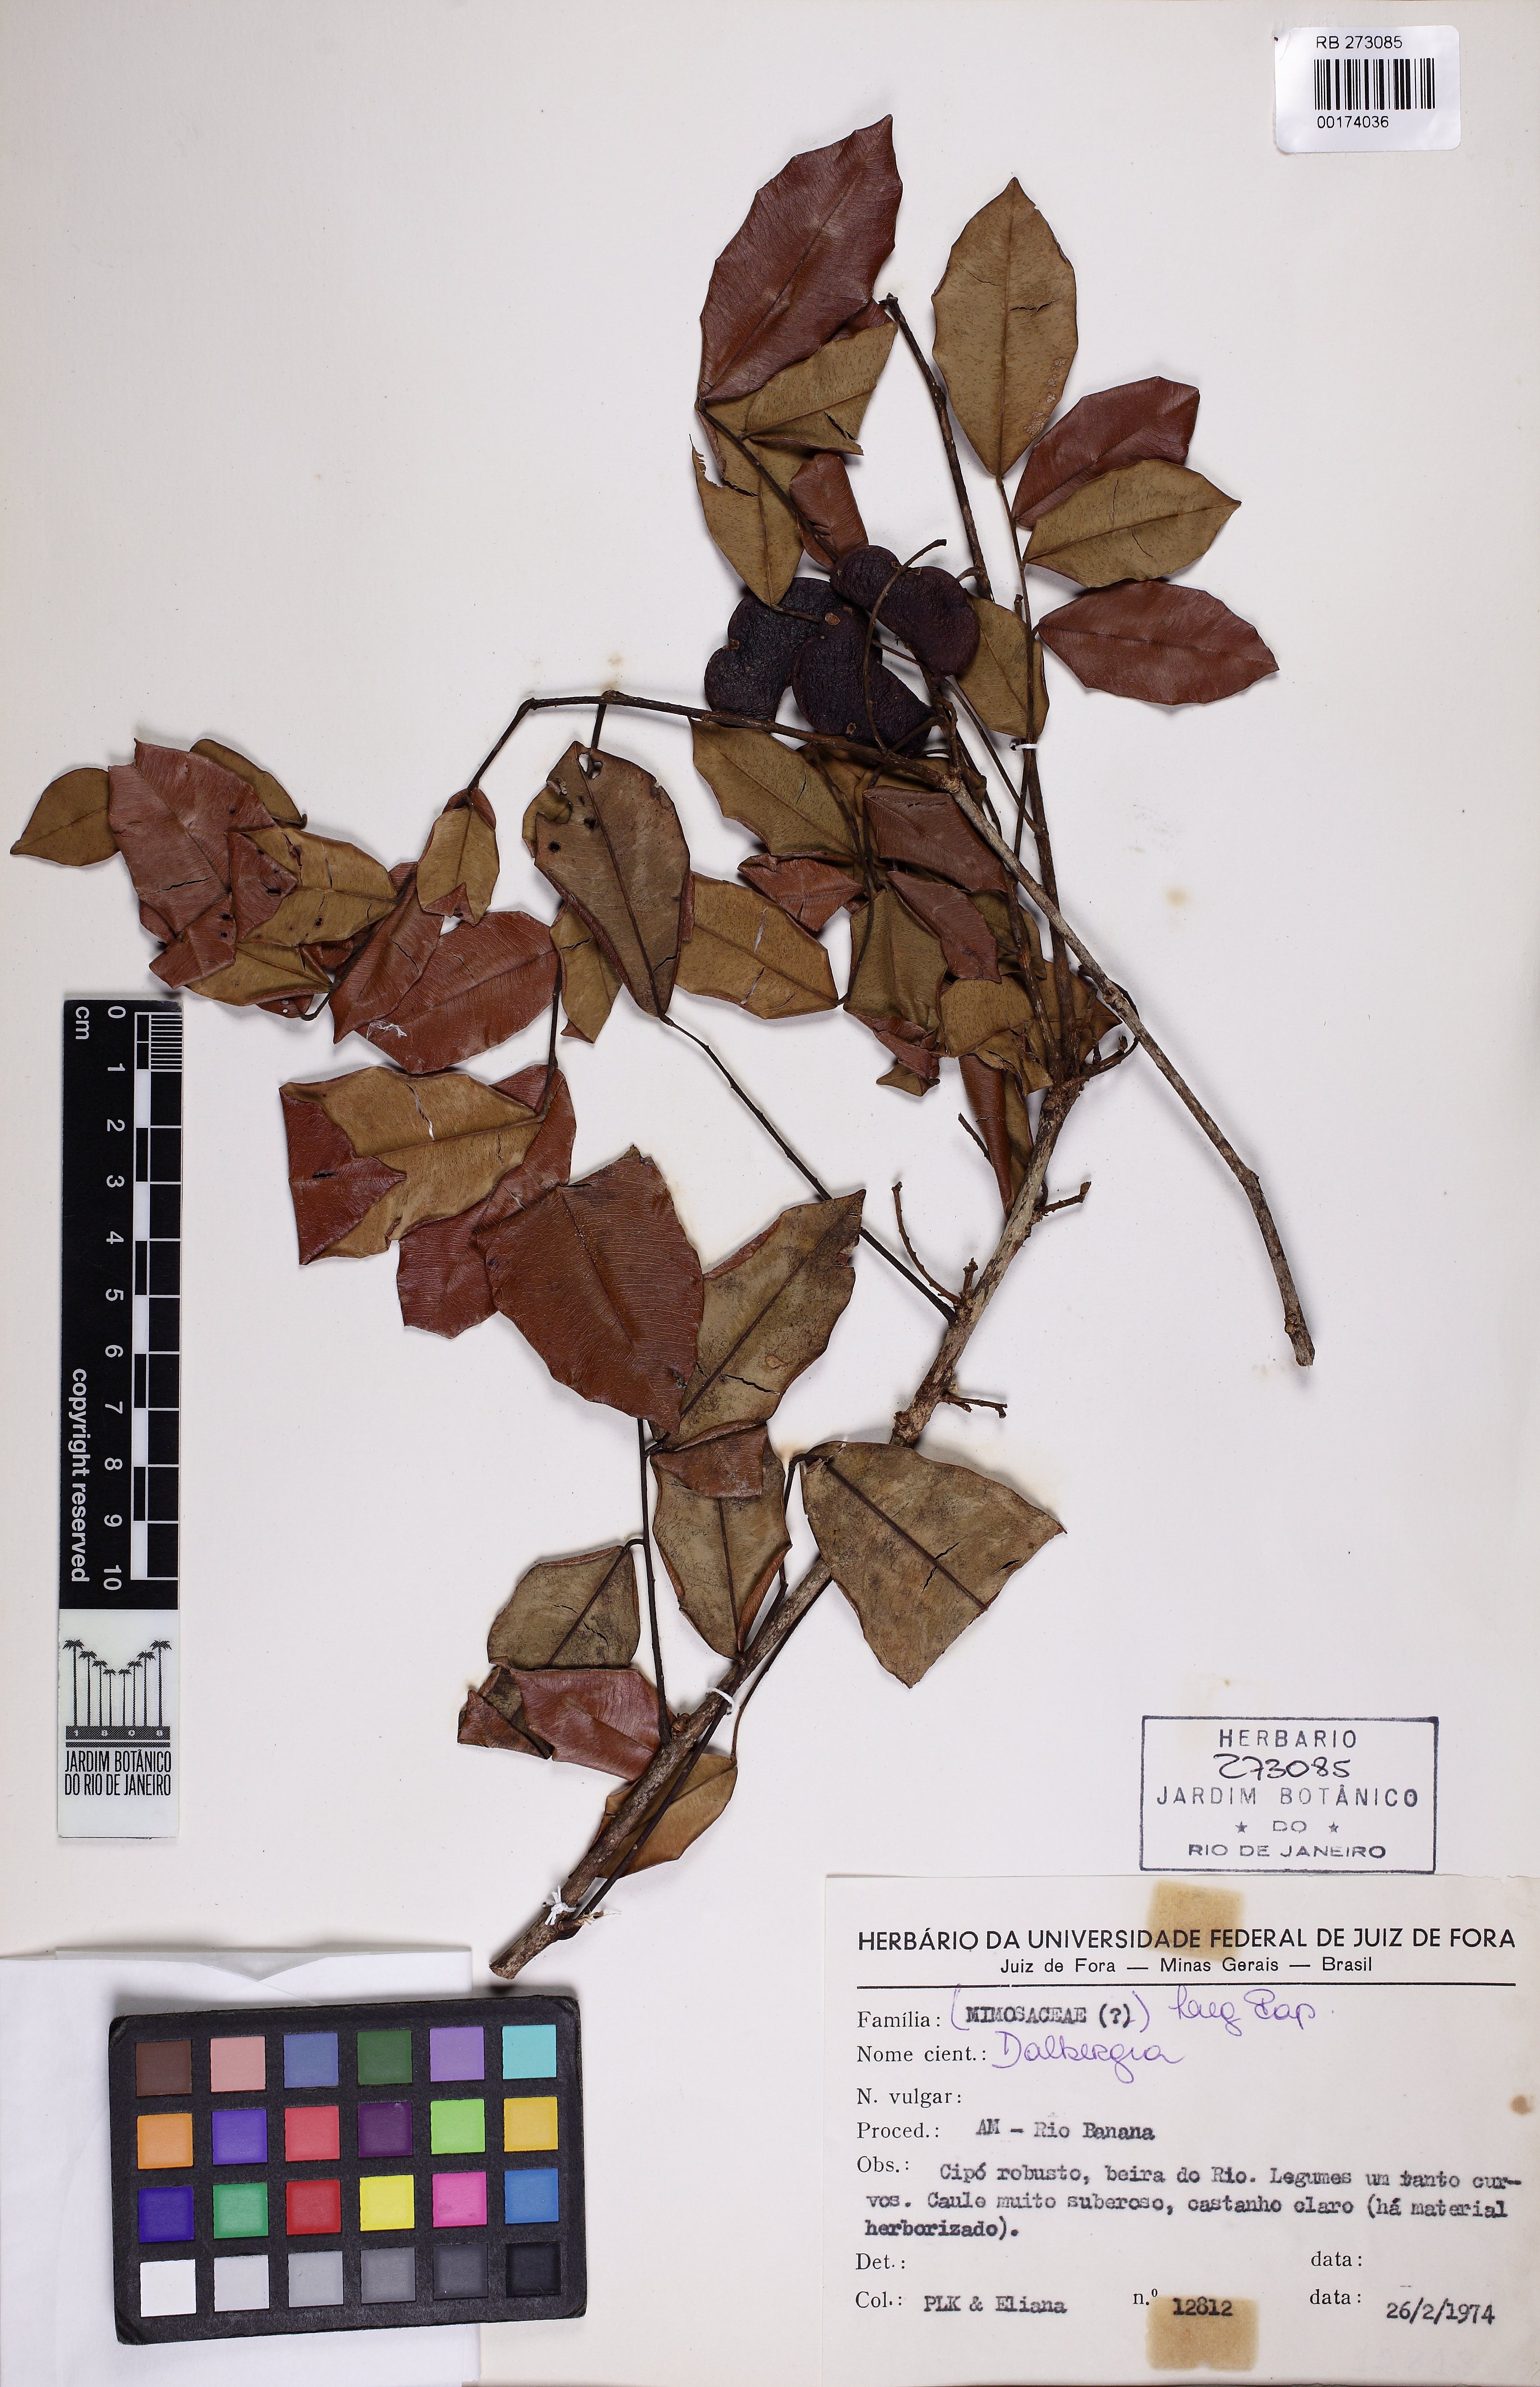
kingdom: Plantae
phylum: Tracheophyta
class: Magnoliopsida
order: Fabales
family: Fabaceae
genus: Machaerium
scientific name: Machaerium lunatum
